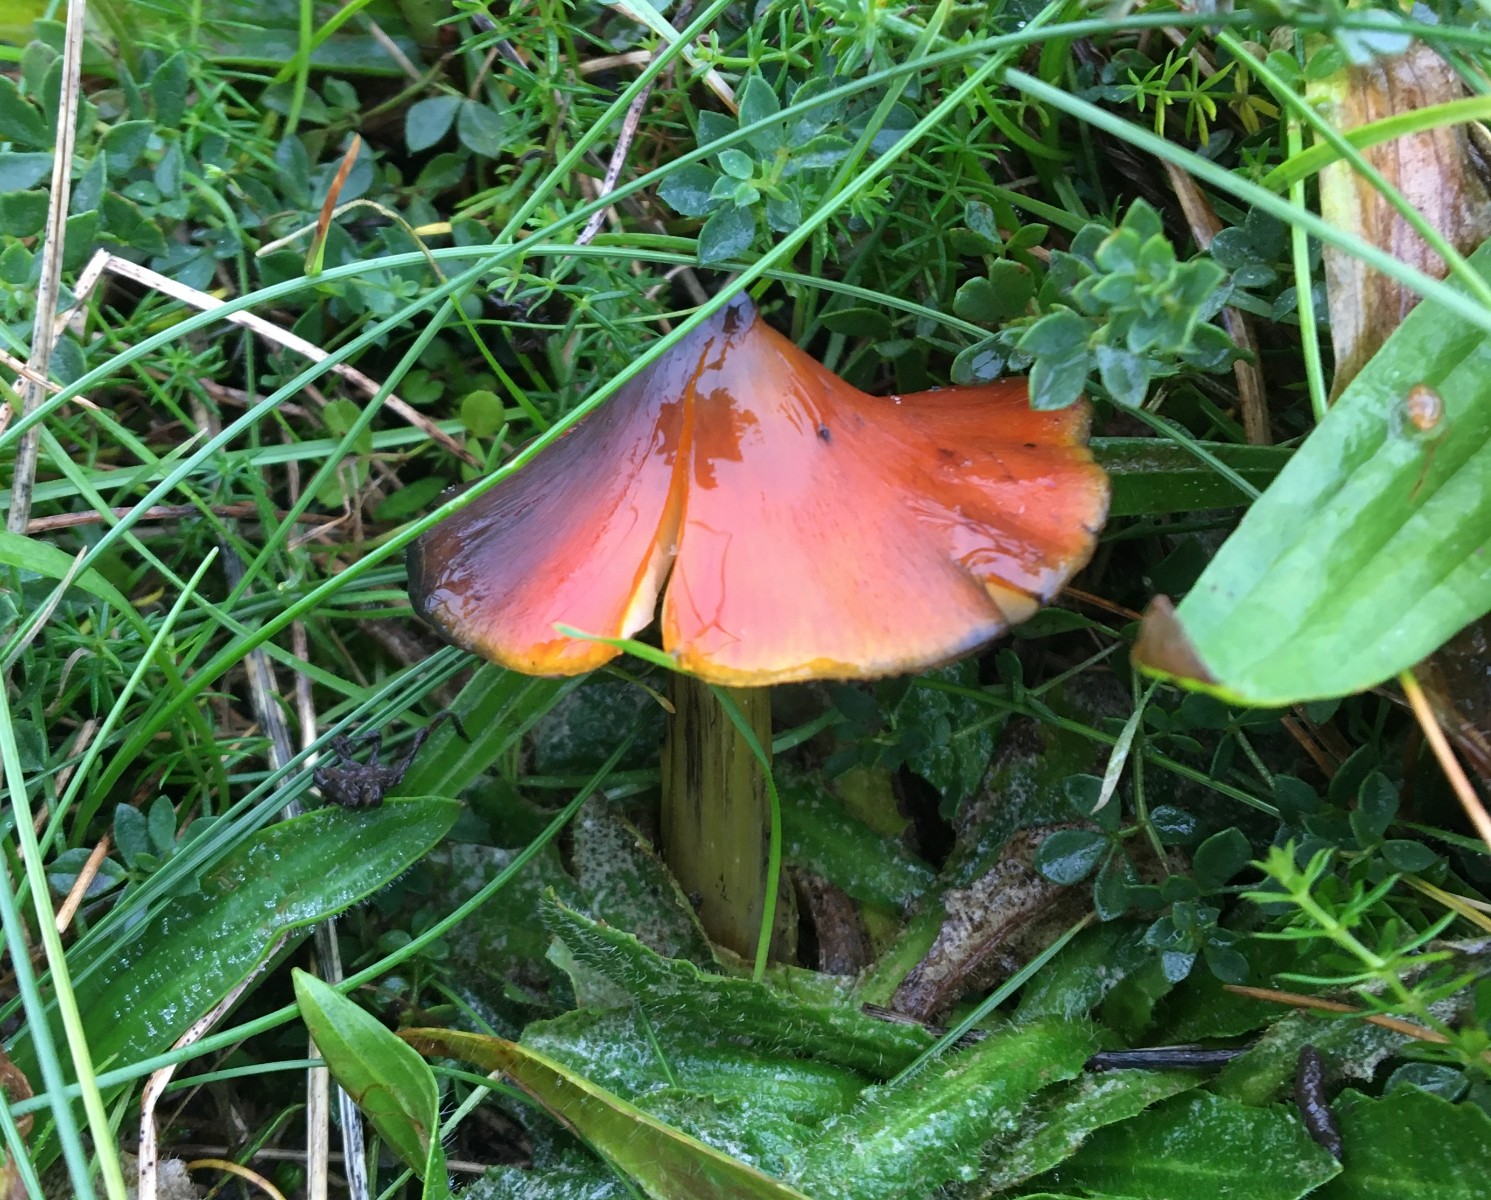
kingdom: Fungi
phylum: Basidiomycota
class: Agaricomycetes
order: Agaricales
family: Hygrophoraceae
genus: Hygrocybe
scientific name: Hygrocybe conica
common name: kegle-vokshat
